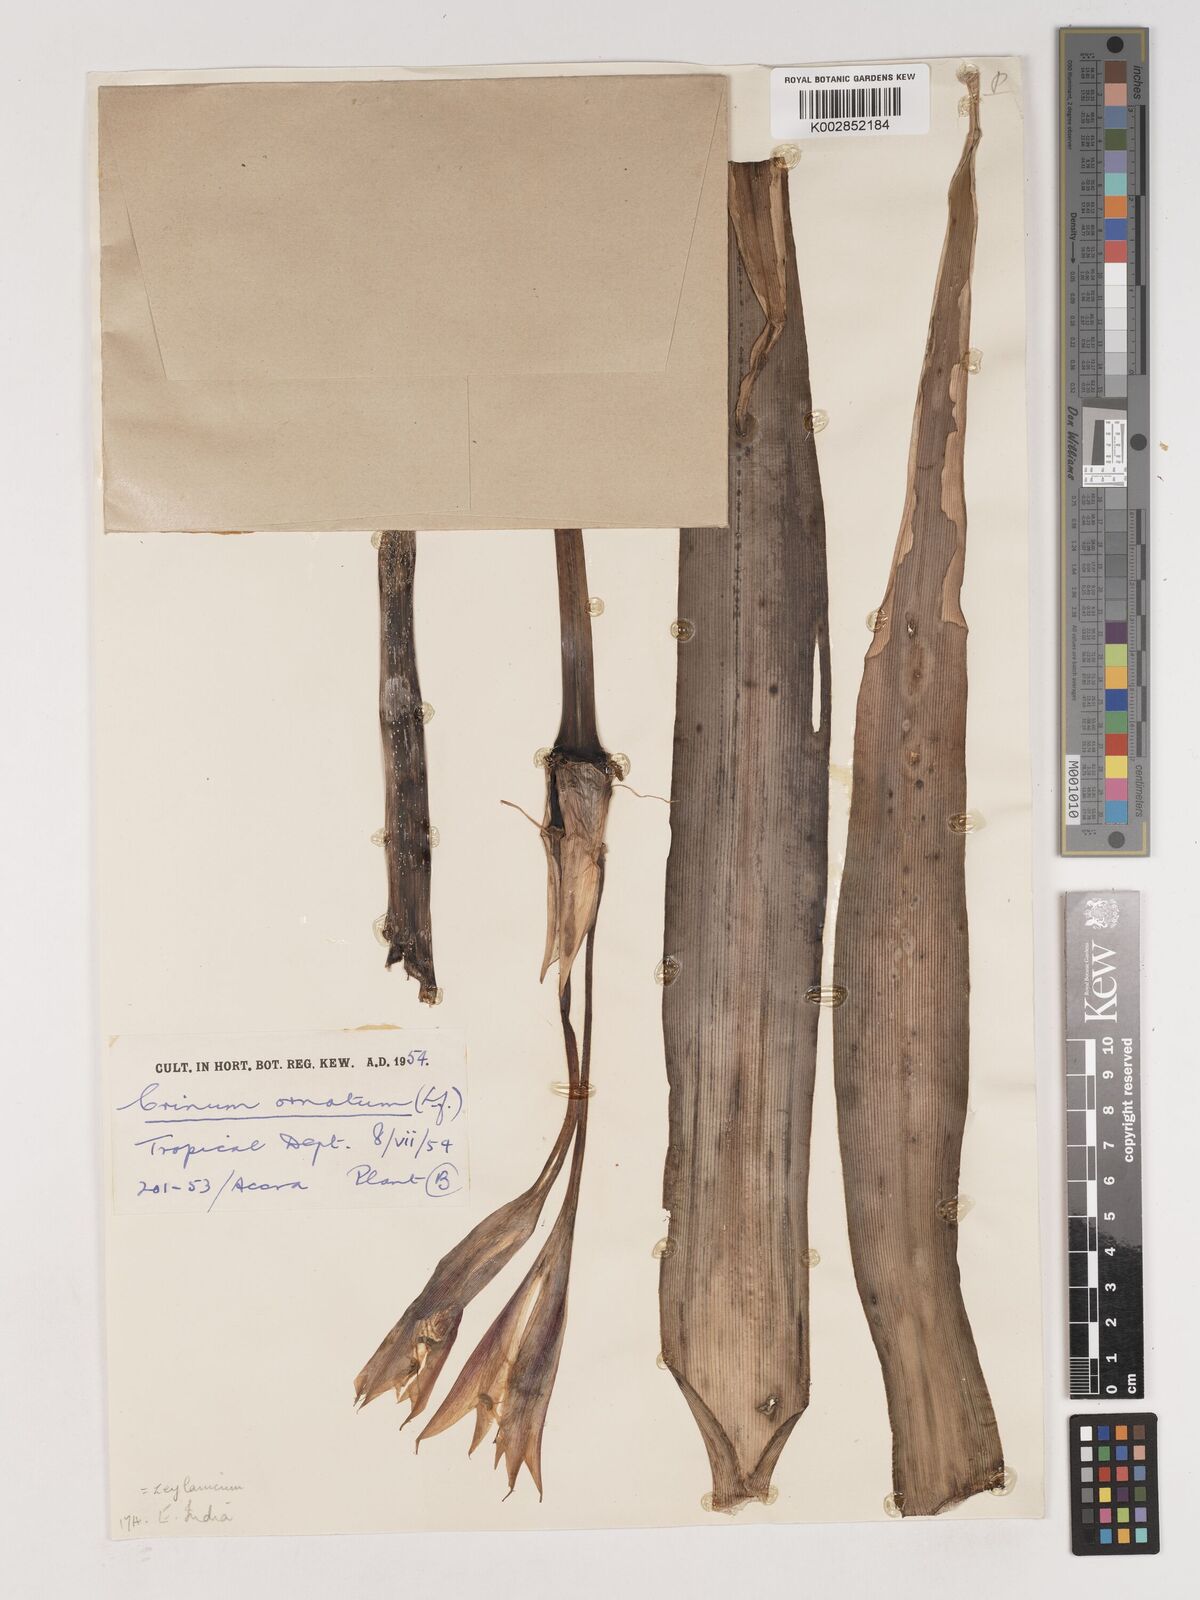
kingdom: Plantae
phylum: Tracheophyta
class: Liliopsida
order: Asparagales
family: Amaryllidaceae
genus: Crinum
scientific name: Crinum ornatum
